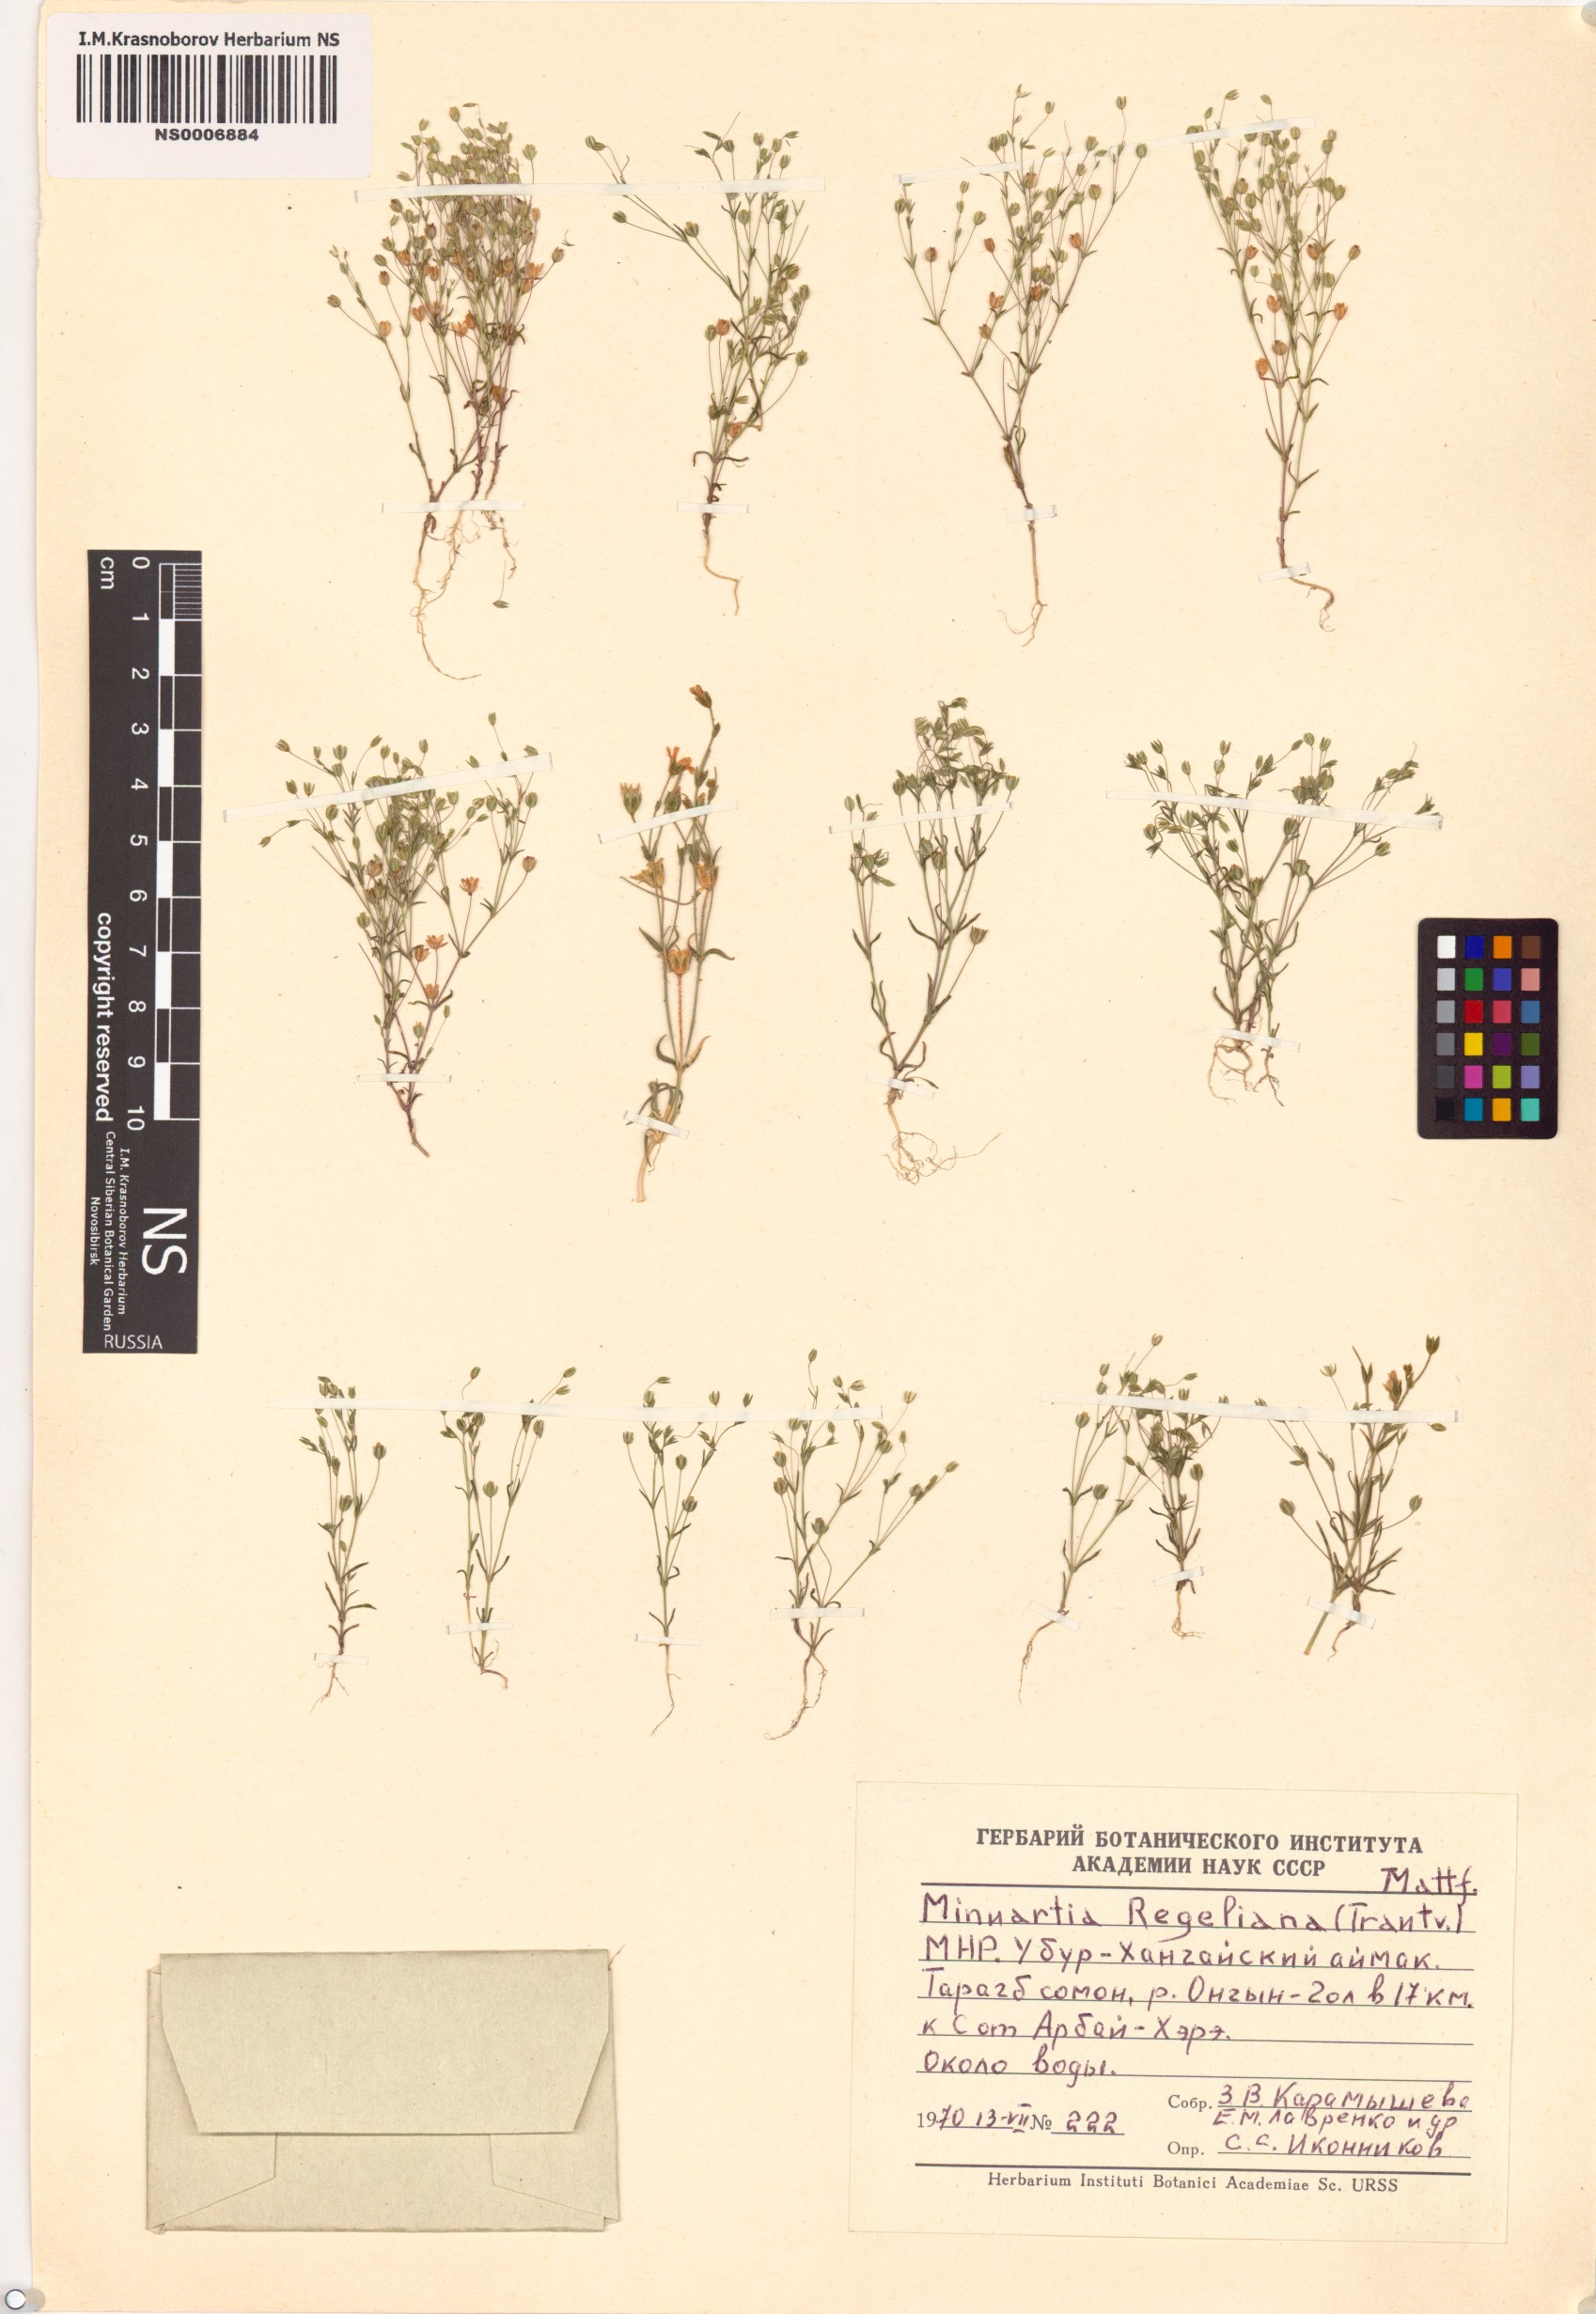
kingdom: Plantae
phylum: Tracheophyta
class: Magnoliopsida
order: Caryophyllales
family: Caryophyllaceae
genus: Sabulina
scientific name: Sabulina regeliana
